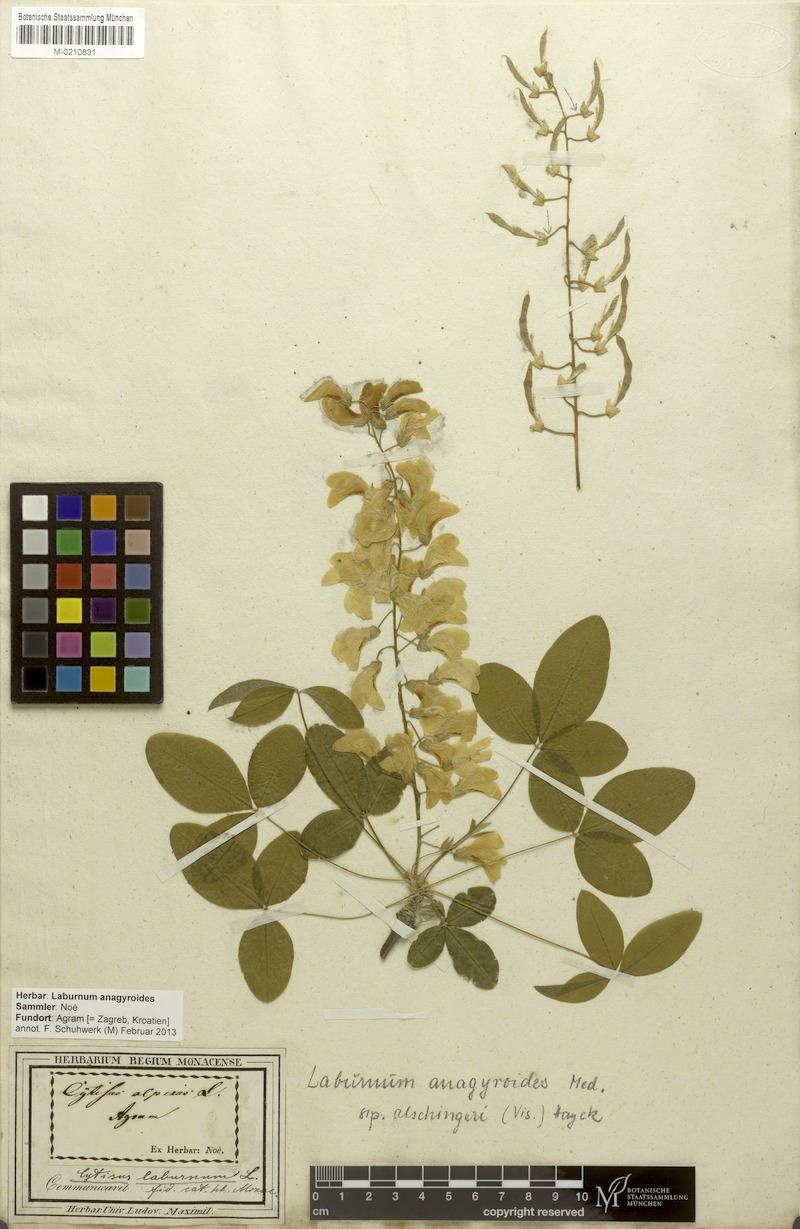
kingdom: Plantae
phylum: Tracheophyta
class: Magnoliopsida
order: Fabales
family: Fabaceae
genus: Laburnum
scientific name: Laburnum anagyroides
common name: Laburnum
